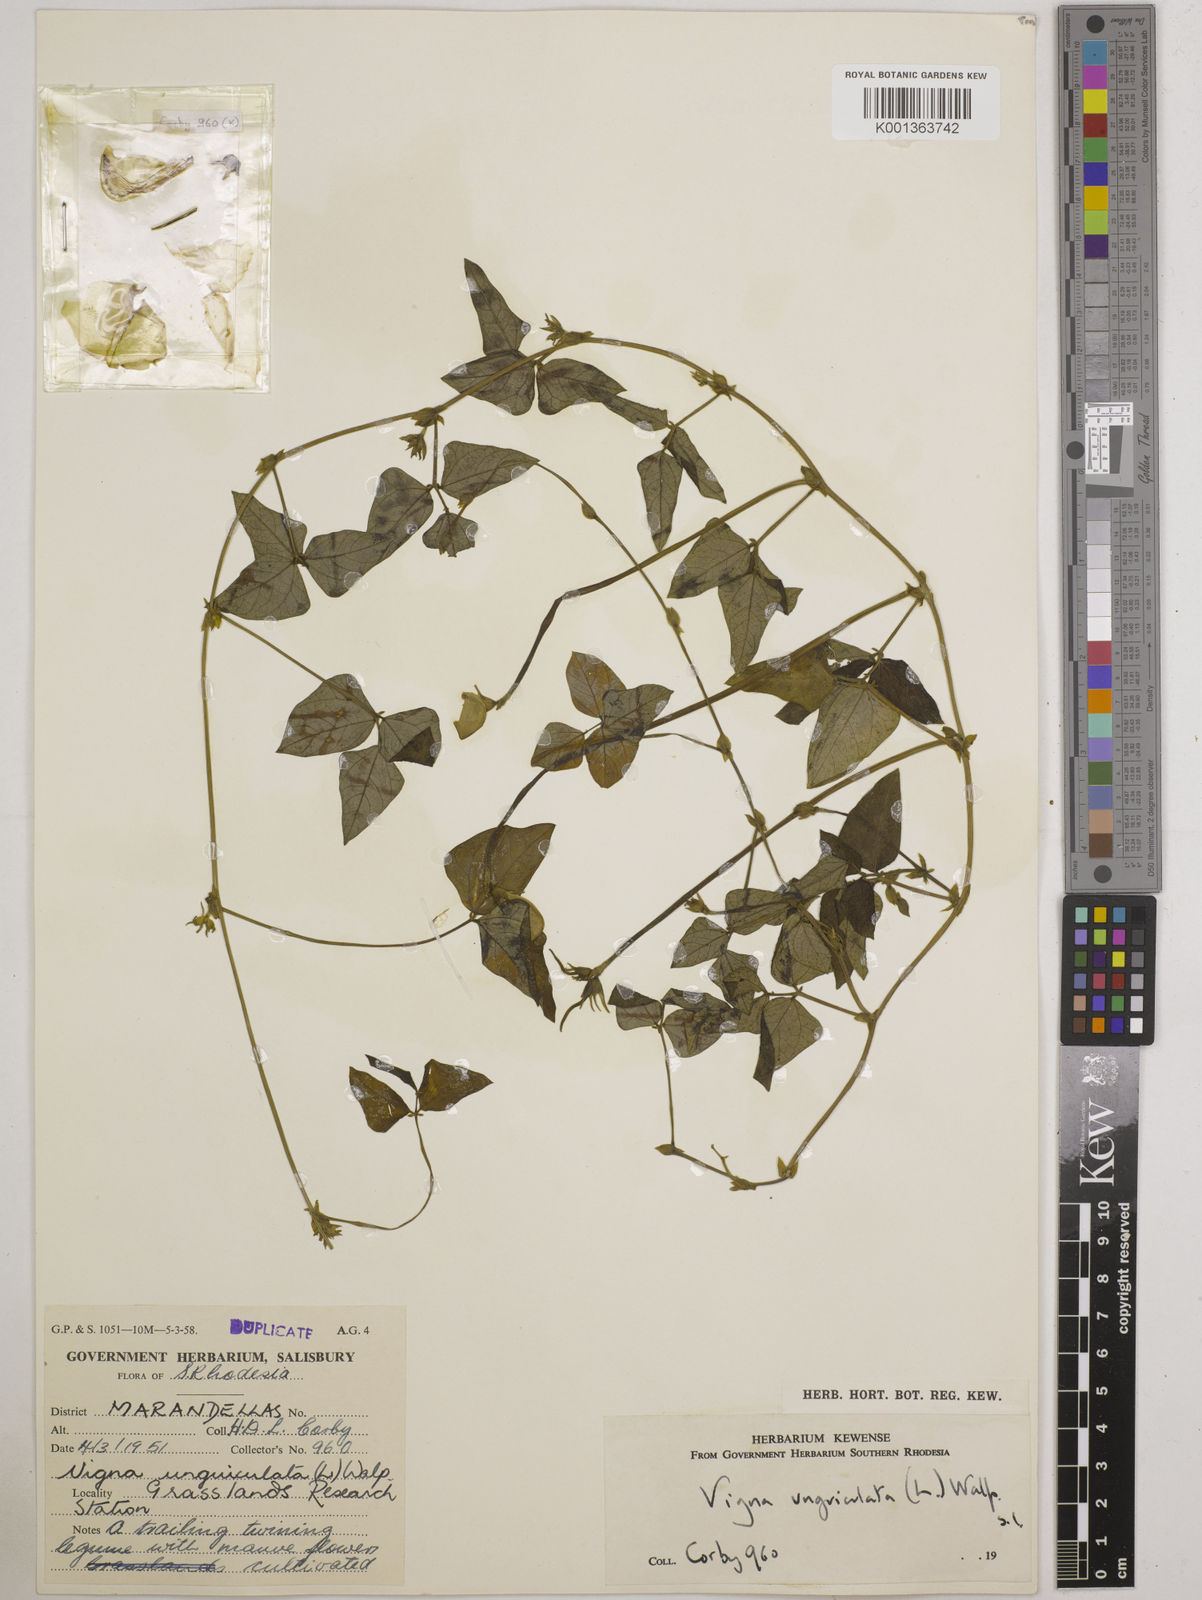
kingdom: Plantae
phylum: Tracheophyta
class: Magnoliopsida
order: Fabales
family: Fabaceae
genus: Vigna
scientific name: Vigna unguiculata
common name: Cowpea
